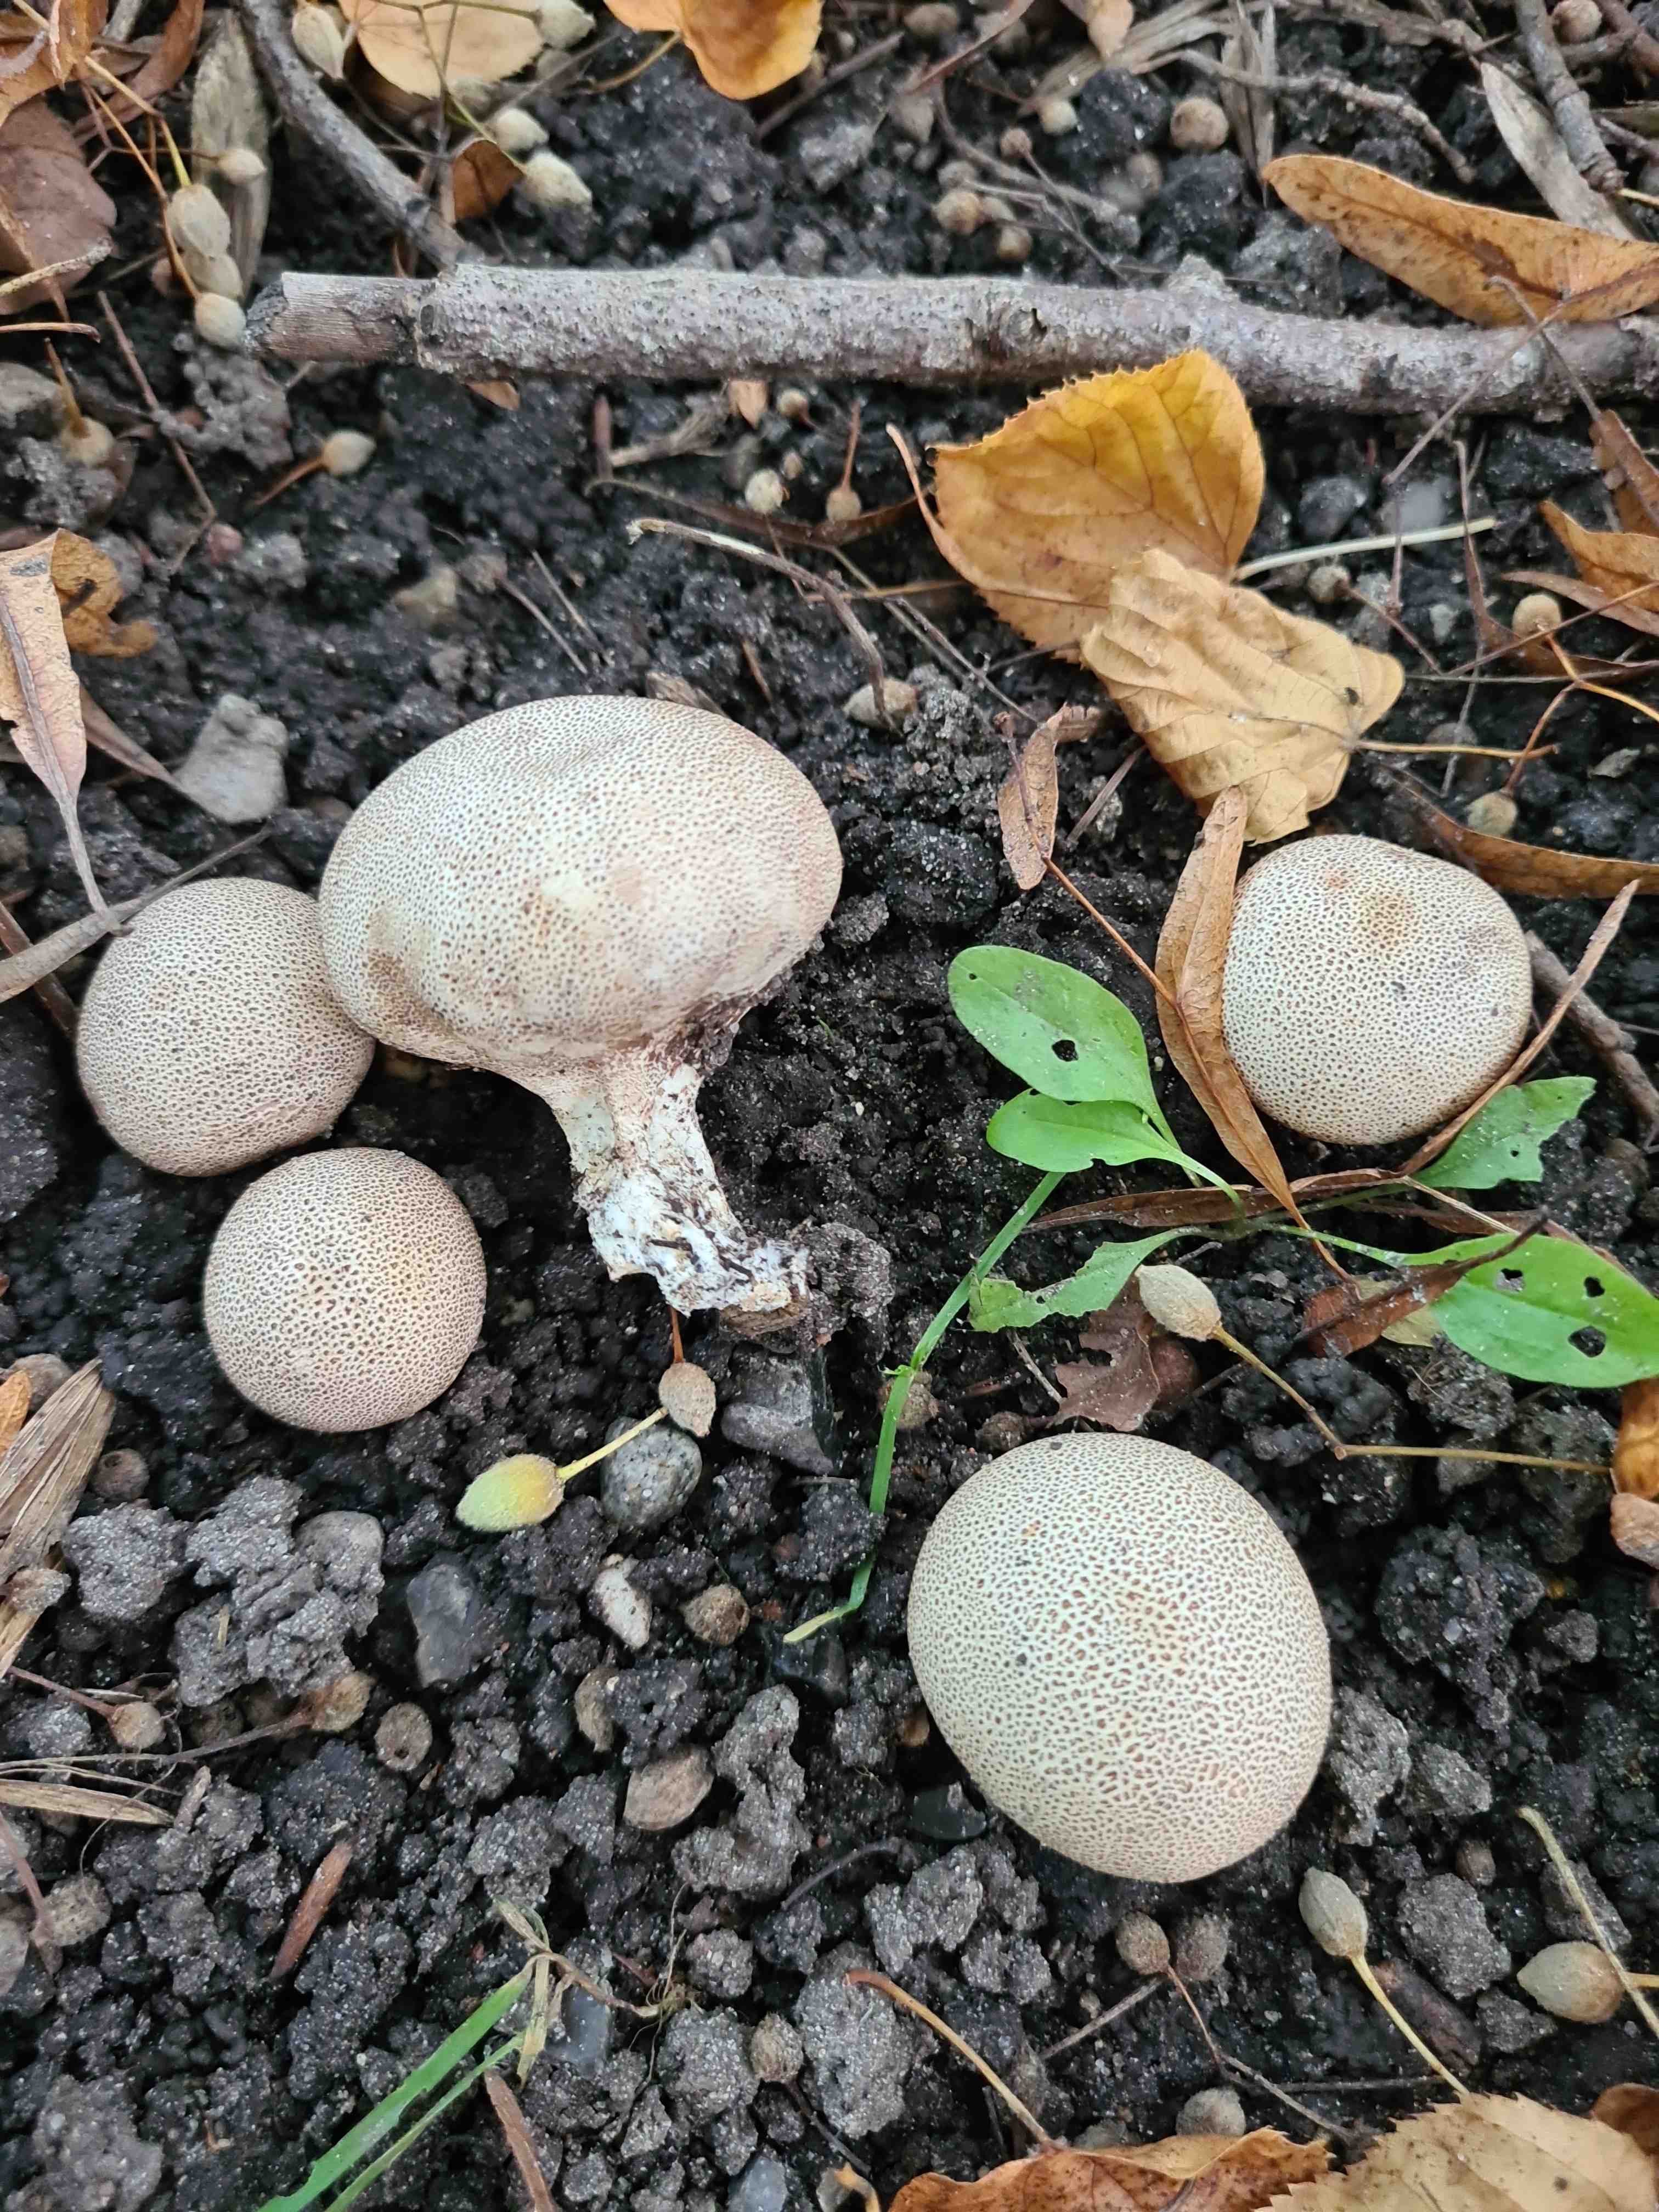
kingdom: Fungi
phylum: Basidiomycota
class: Agaricomycetes
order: Boletales
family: Sclerodermataceae
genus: Scleroderma
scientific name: Scleroderma verrucosum
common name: stilket bruskbold
